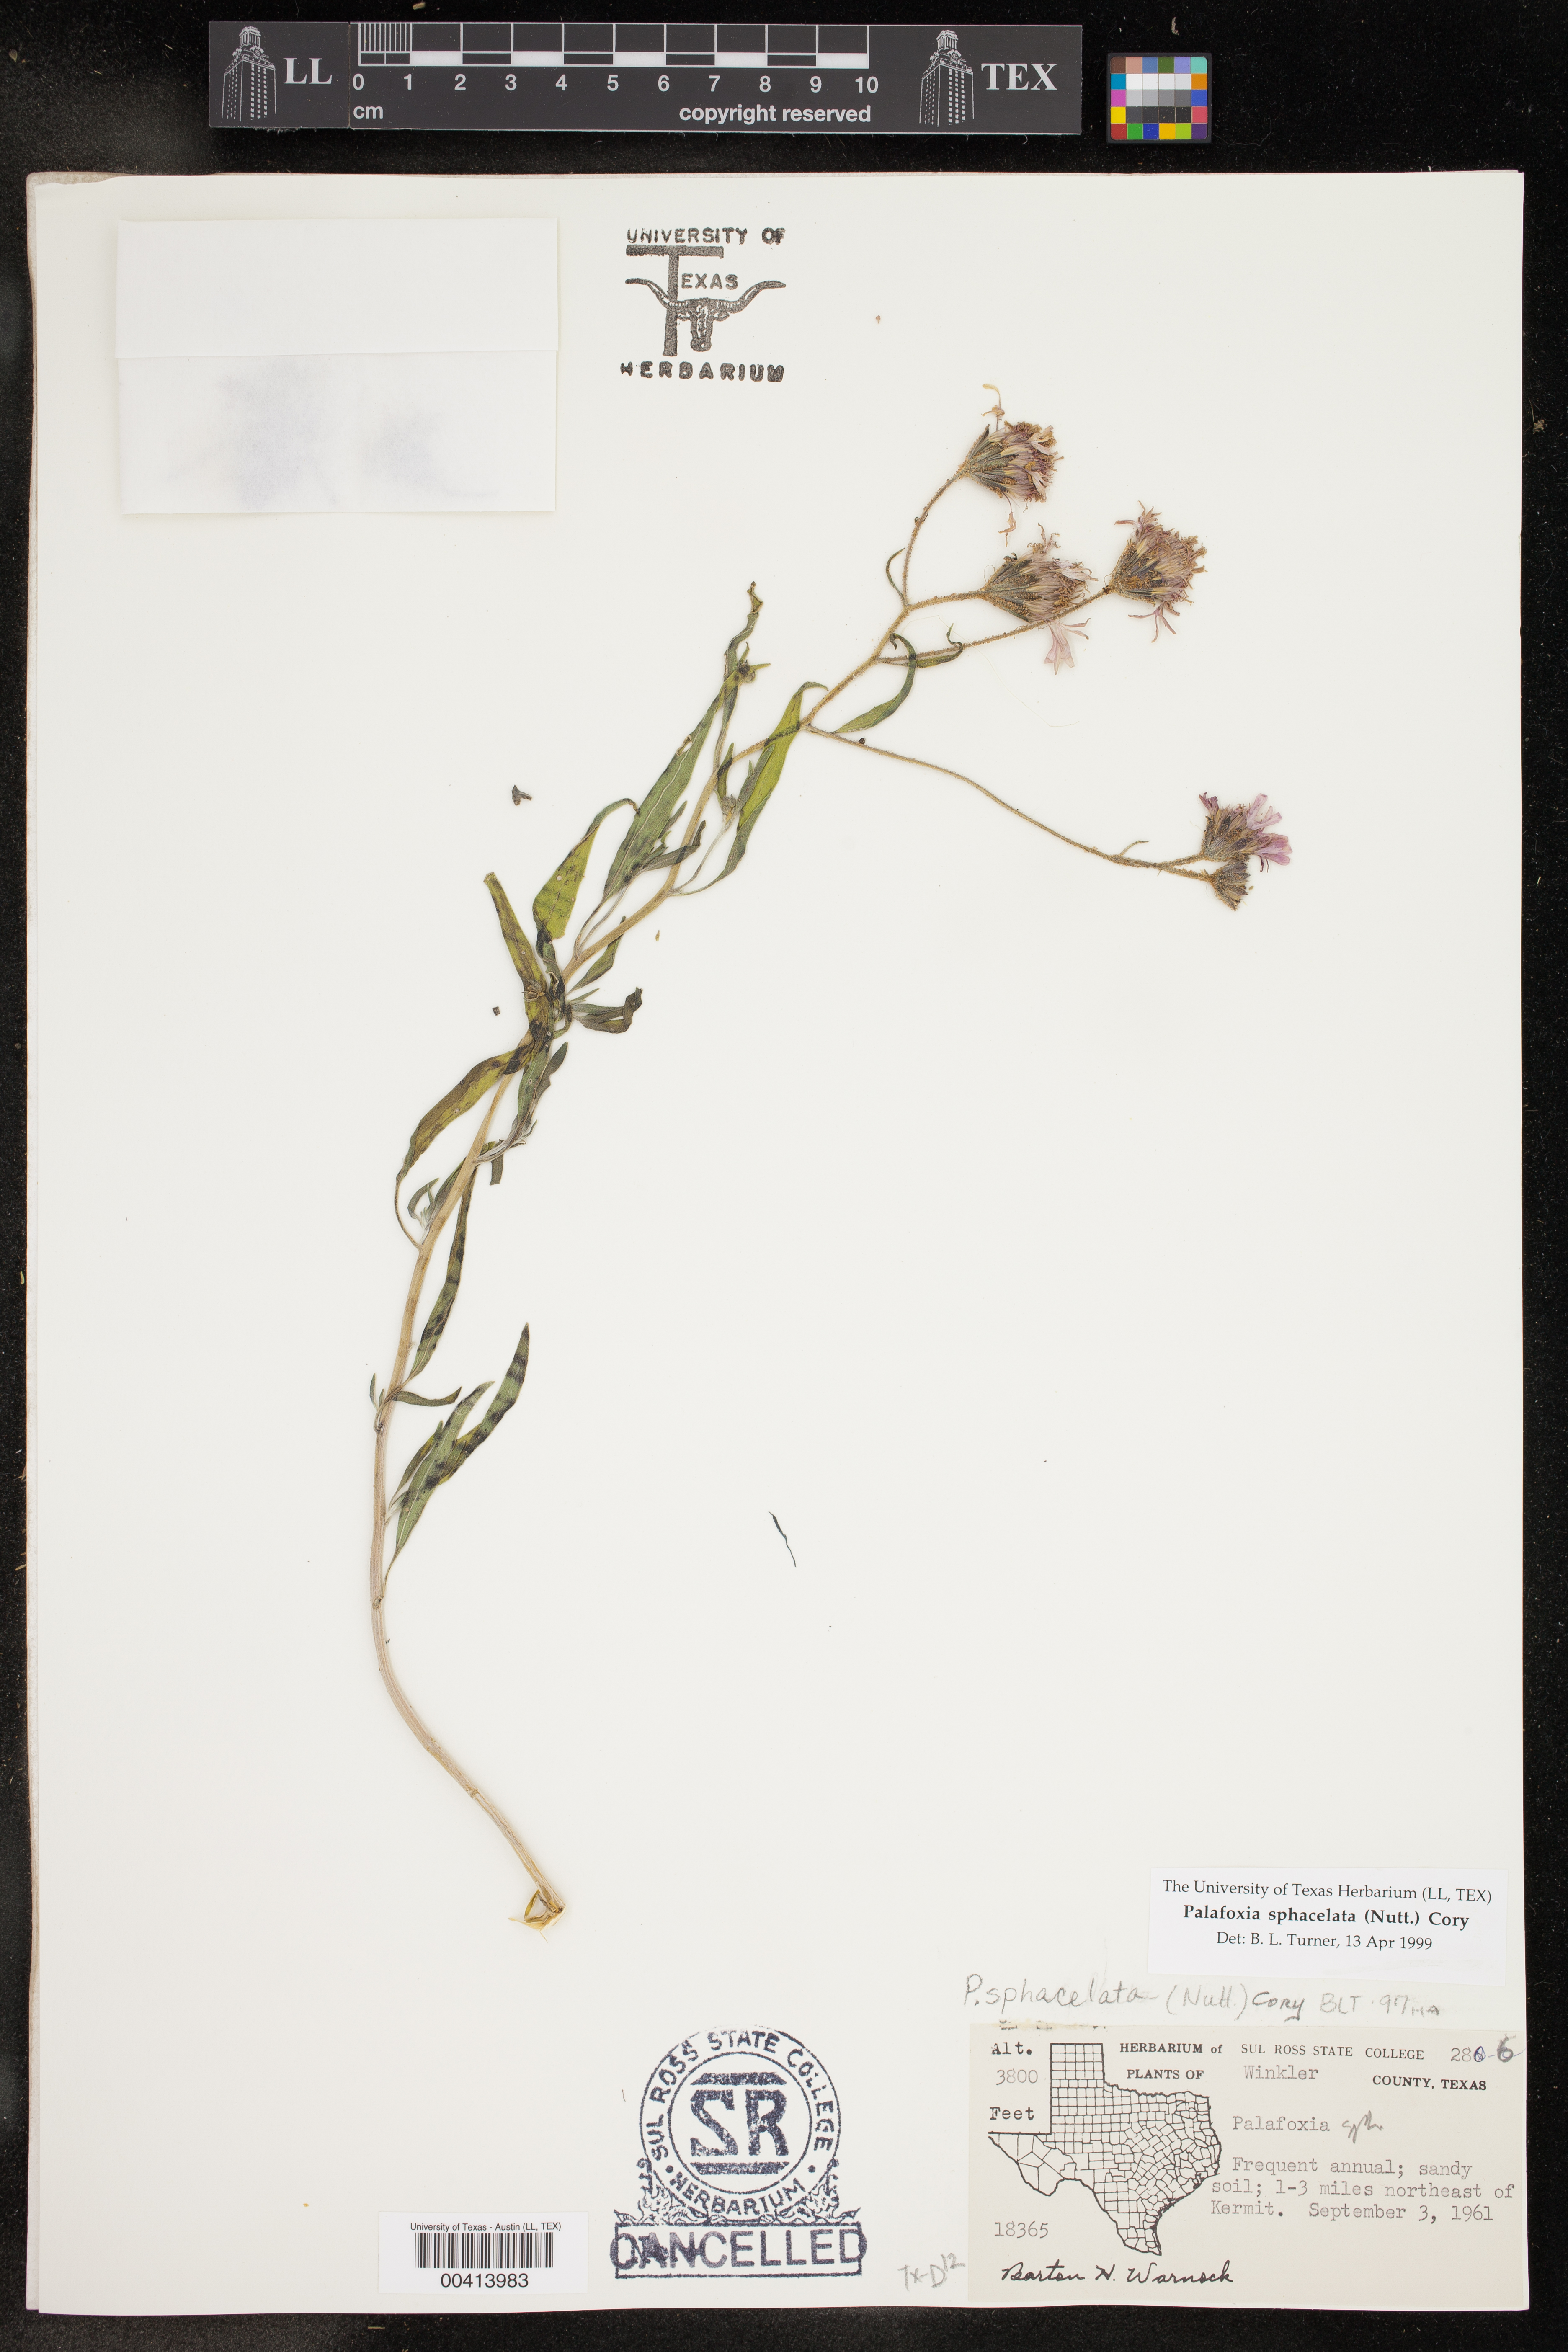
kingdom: Plantae
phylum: Tracheophyta
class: Magnoliopsida
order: Asterales
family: Asteraceae
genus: Palafoxia
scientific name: Palafoxia sphacelata
